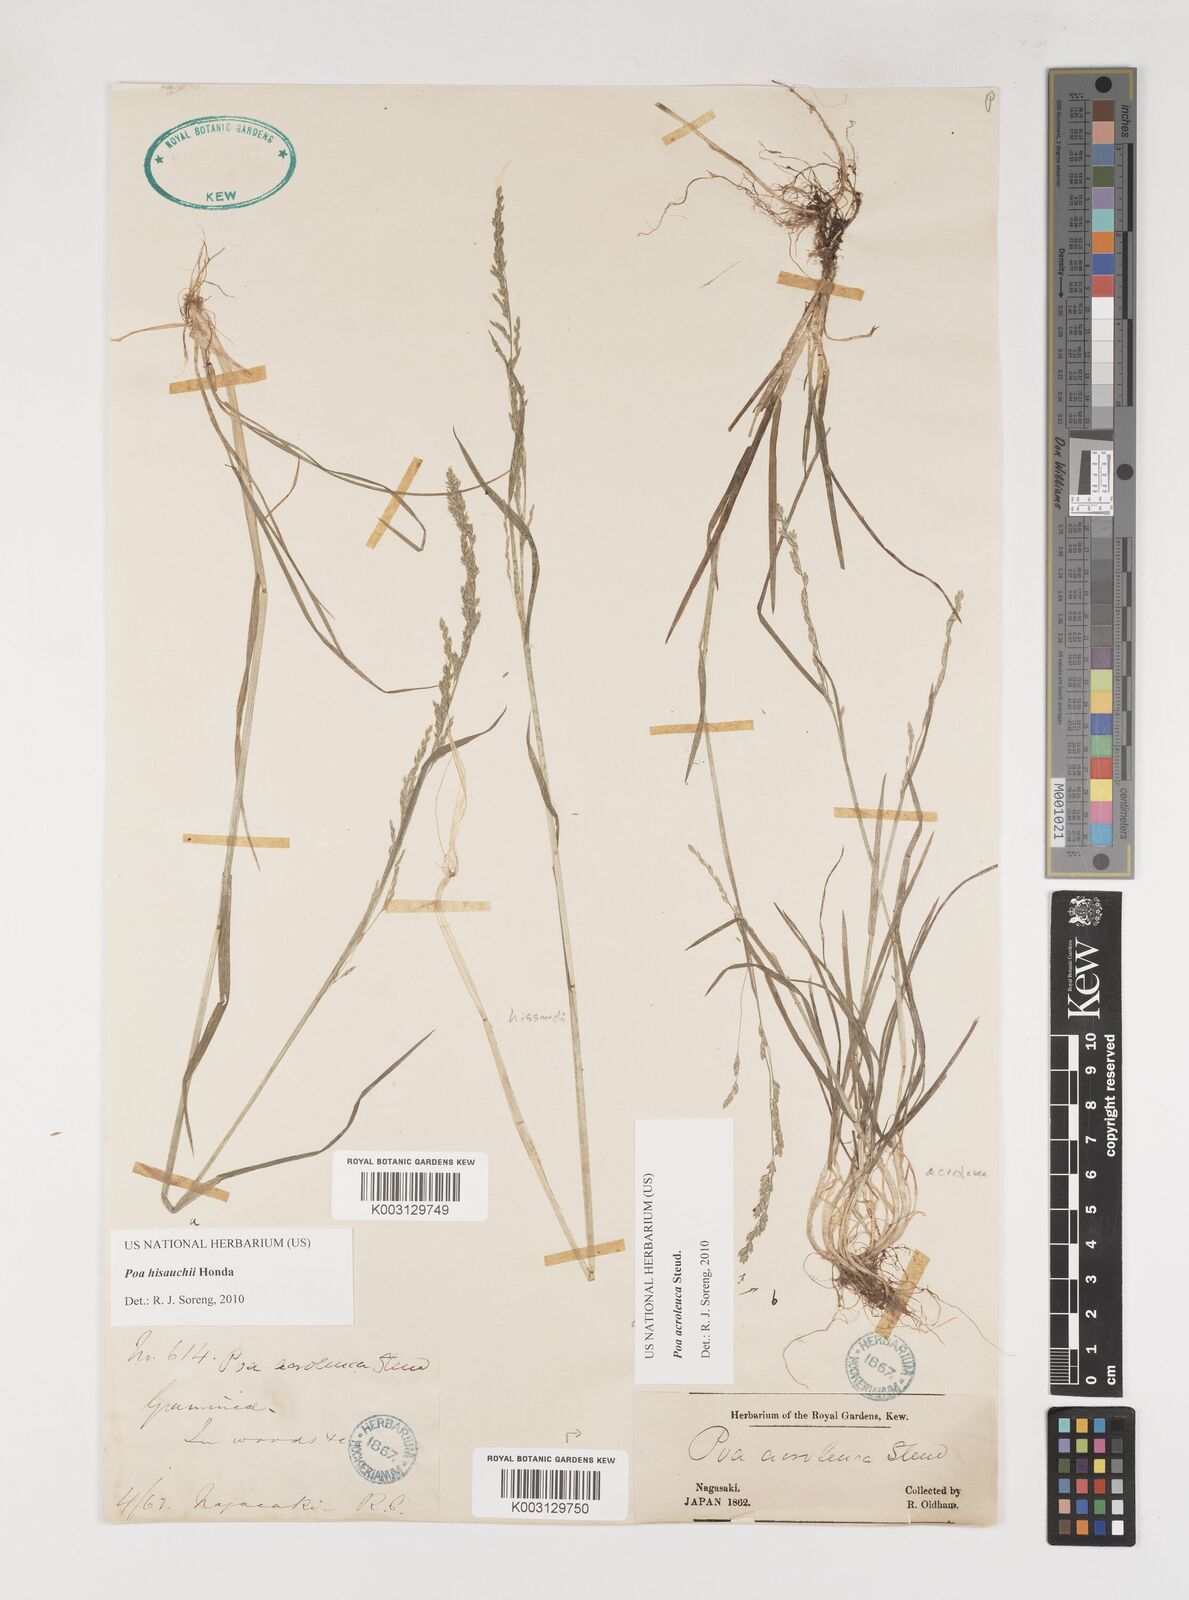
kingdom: Plantae
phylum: Tracheophyta
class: Liliopsida
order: Poales
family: Poaceae
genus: Poa
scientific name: Poa hisauchii
